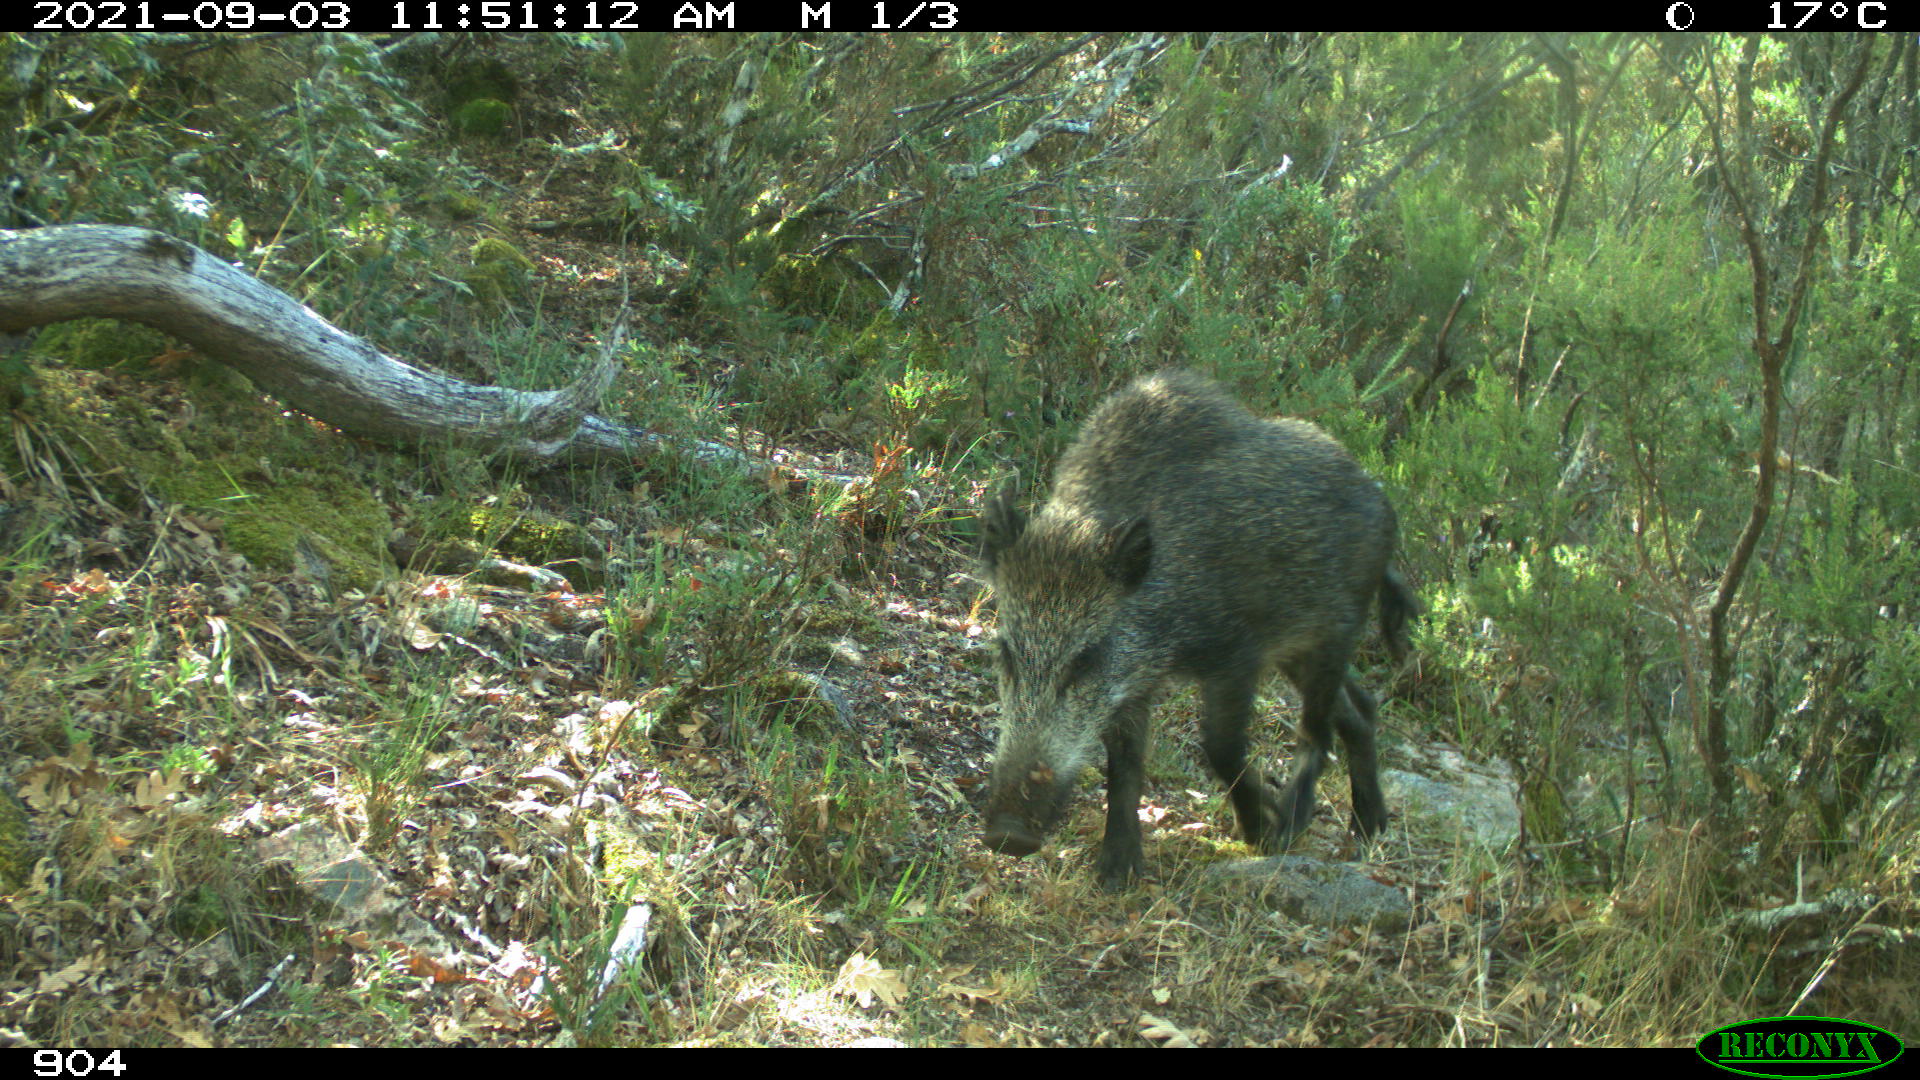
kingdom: Animalia
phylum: Chordata
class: Mammalia
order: Artiodactyla
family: Suidae
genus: Sus
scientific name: Sus scrofa
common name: Wild boar
